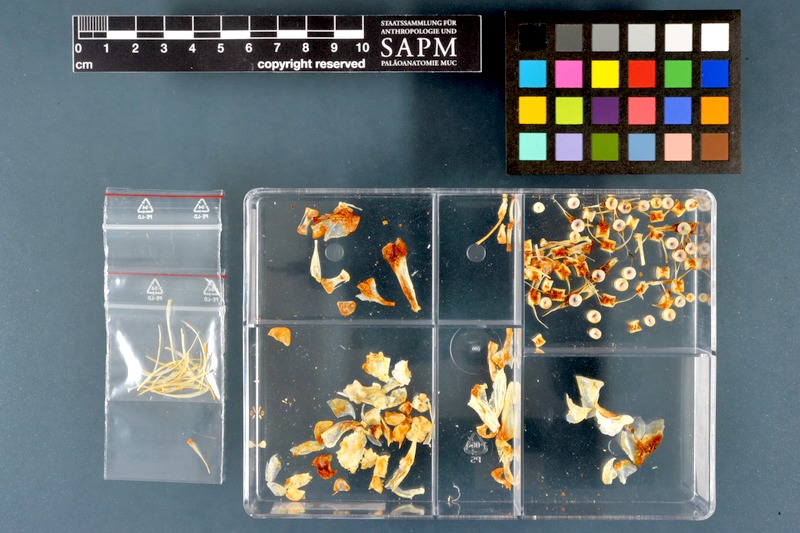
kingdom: Animalia
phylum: Chordata
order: Salmoniformes
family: Salmonidae
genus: Coregonus
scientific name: Coregonus lavaretus
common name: Schelly
